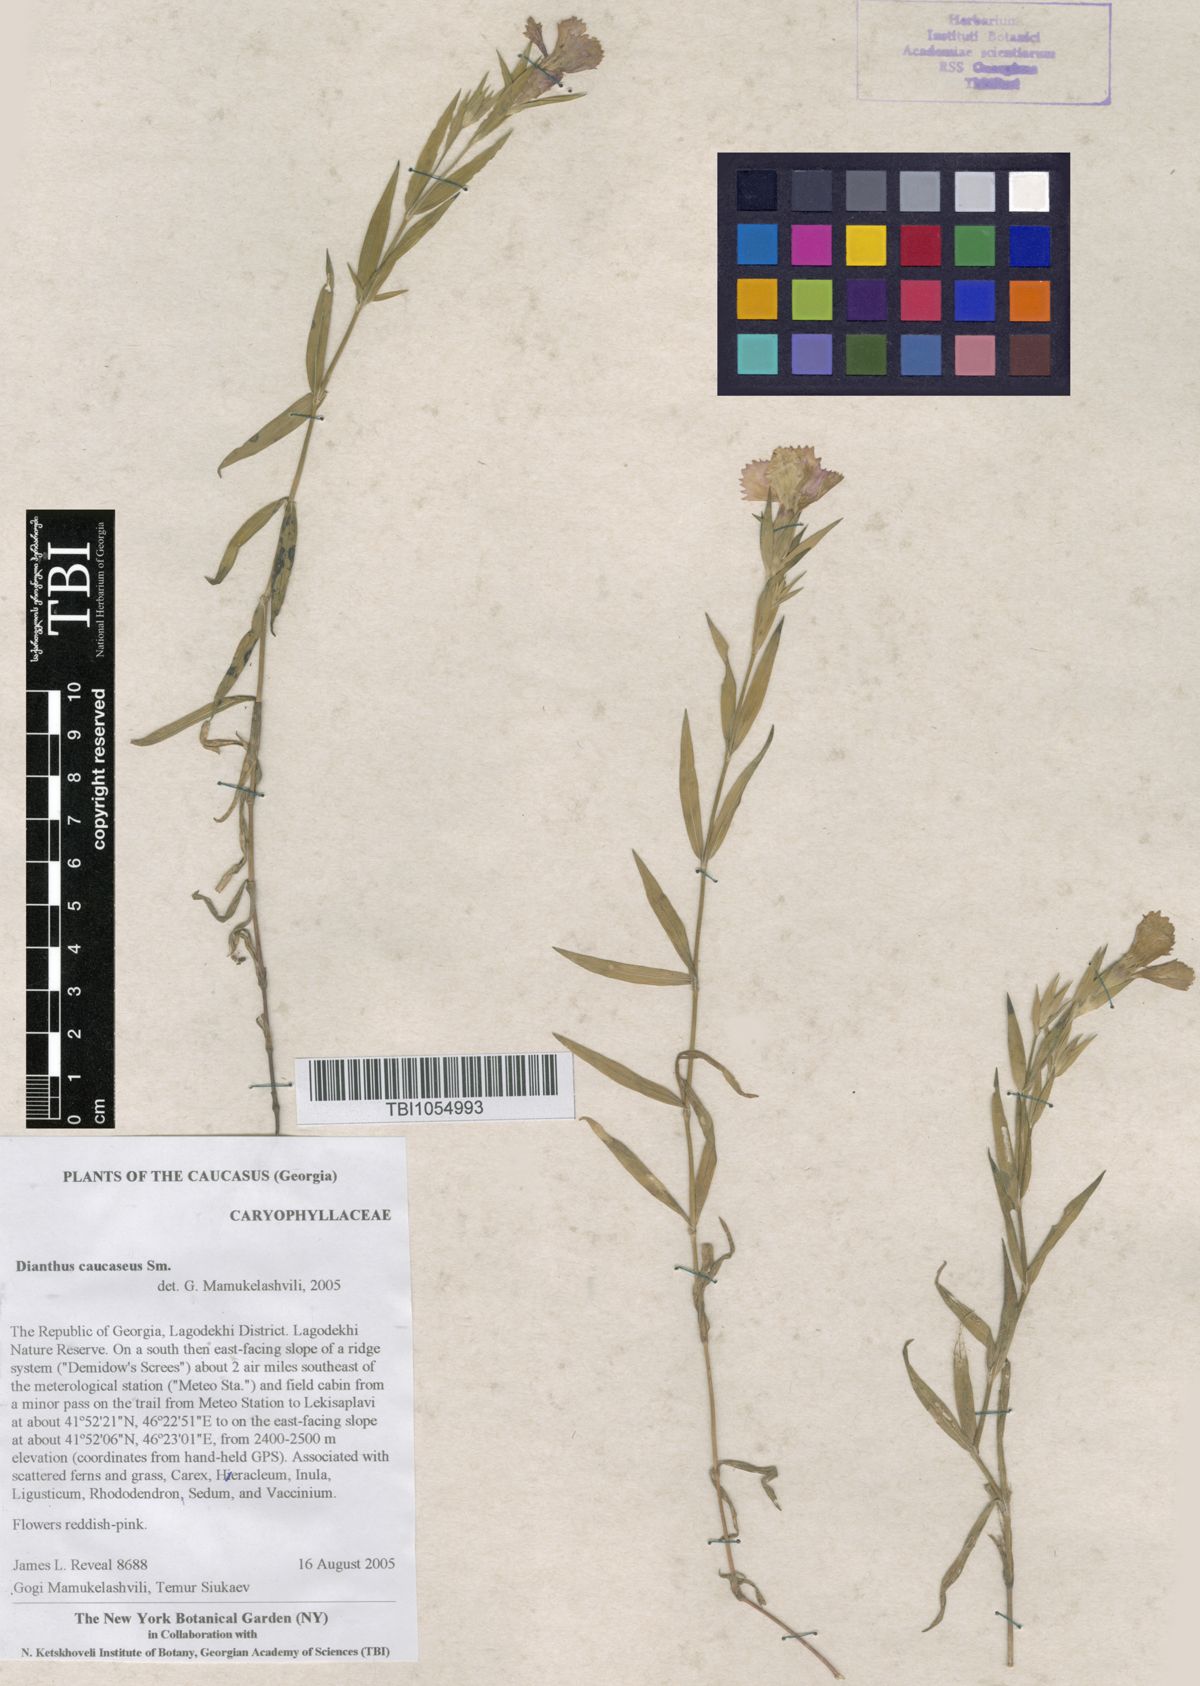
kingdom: Plantae
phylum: Tracheophyta
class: Magnoliopsida
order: Caryophyllales
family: Caryophyllaceae
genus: Dianthus
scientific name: Dianthus caucaseus
